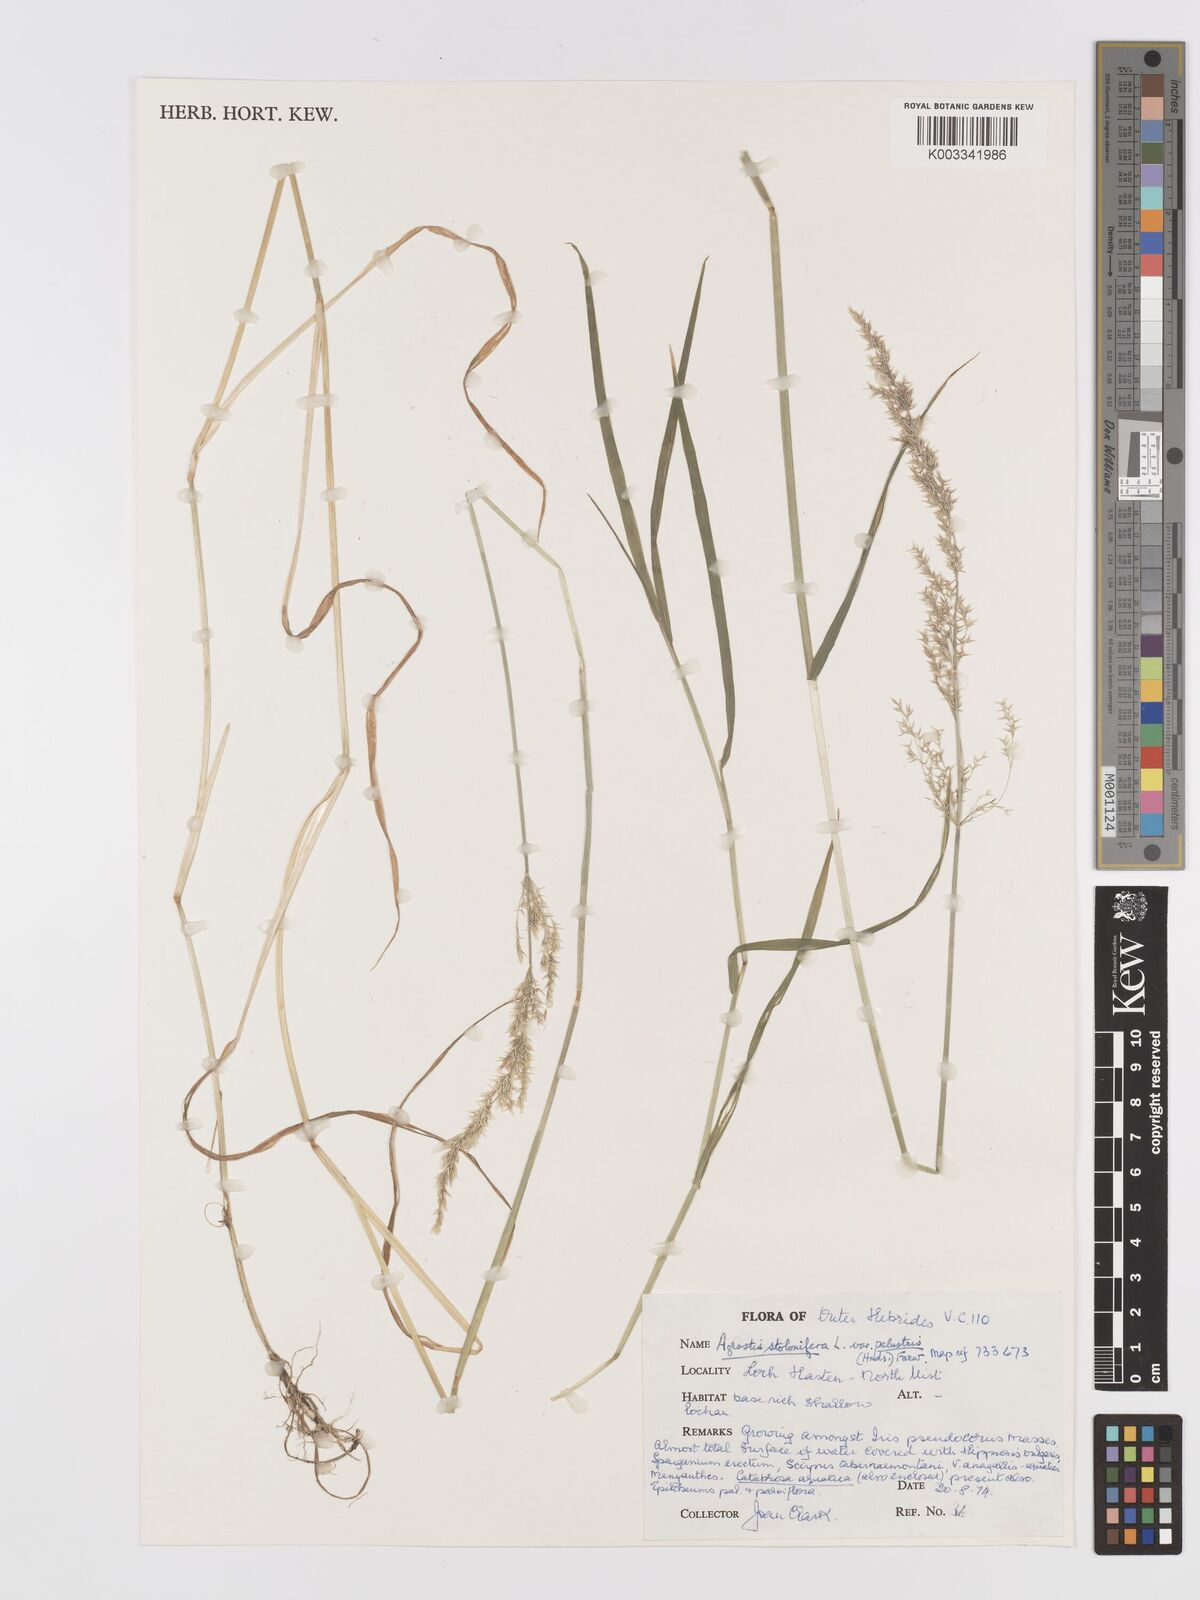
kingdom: Plantae
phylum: Tracheophyta
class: Liliopsida
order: Poales
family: Poaceae
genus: Agrostis
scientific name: Agrostis stolonifera
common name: Creeping bentgrass
